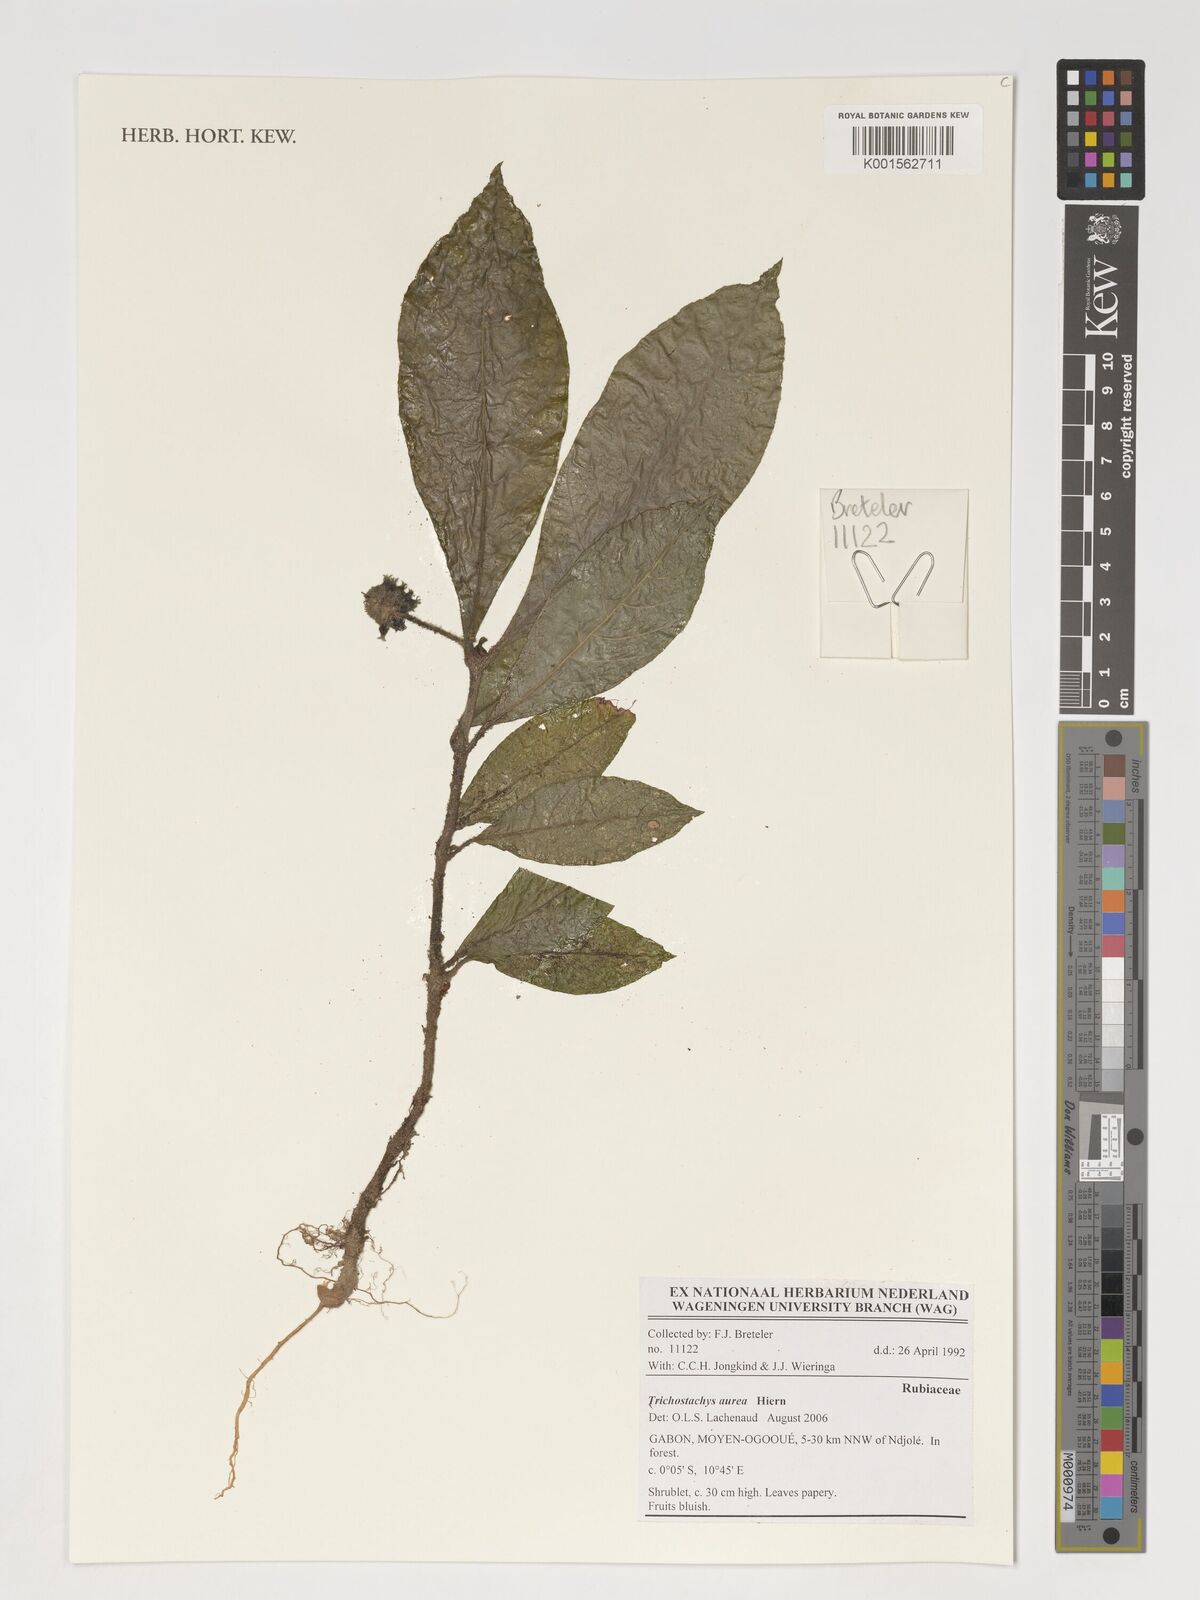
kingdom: Plantae
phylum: Tracheophyta
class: Magnoliopsida
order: Gentianales
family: Rubiaceae
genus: Trichostachys
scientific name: Trichostachys aurea
